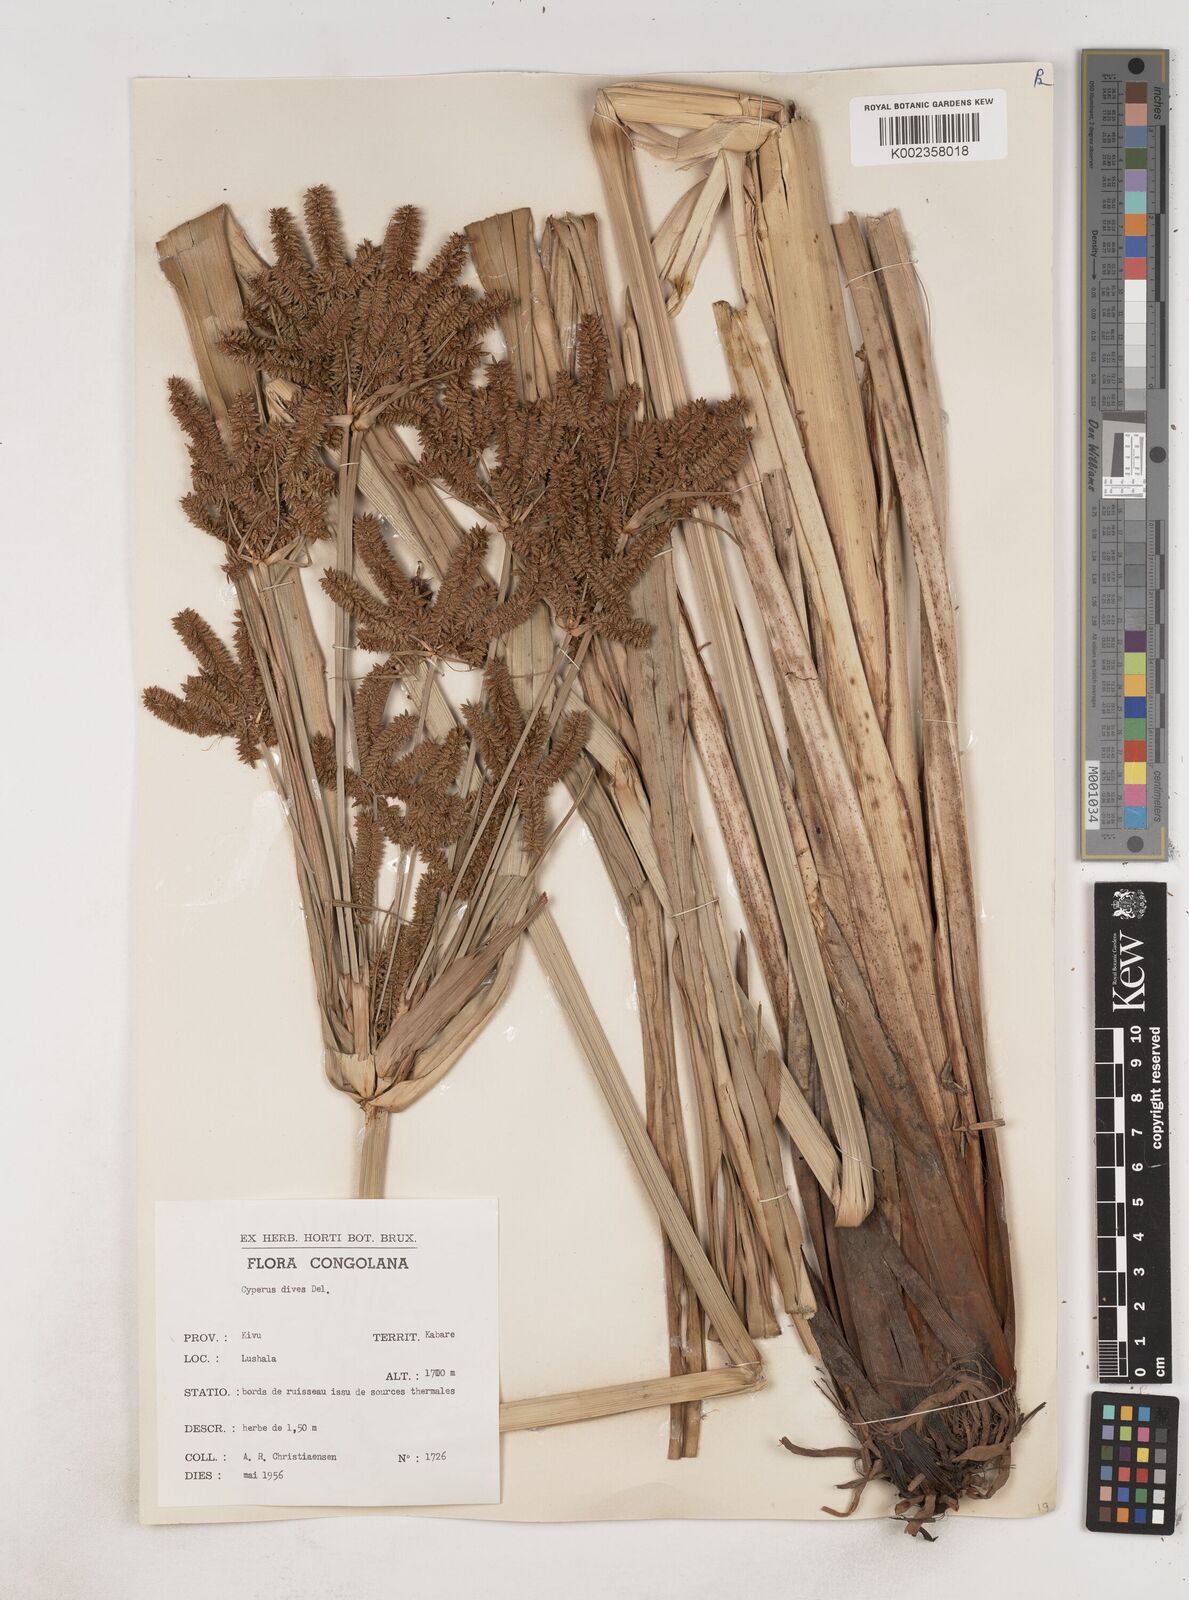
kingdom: Plantae
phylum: Tracheophyta
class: Liliopsida
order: Poales
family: Cyperaceae
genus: Cyperus
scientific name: Cyperus dives
